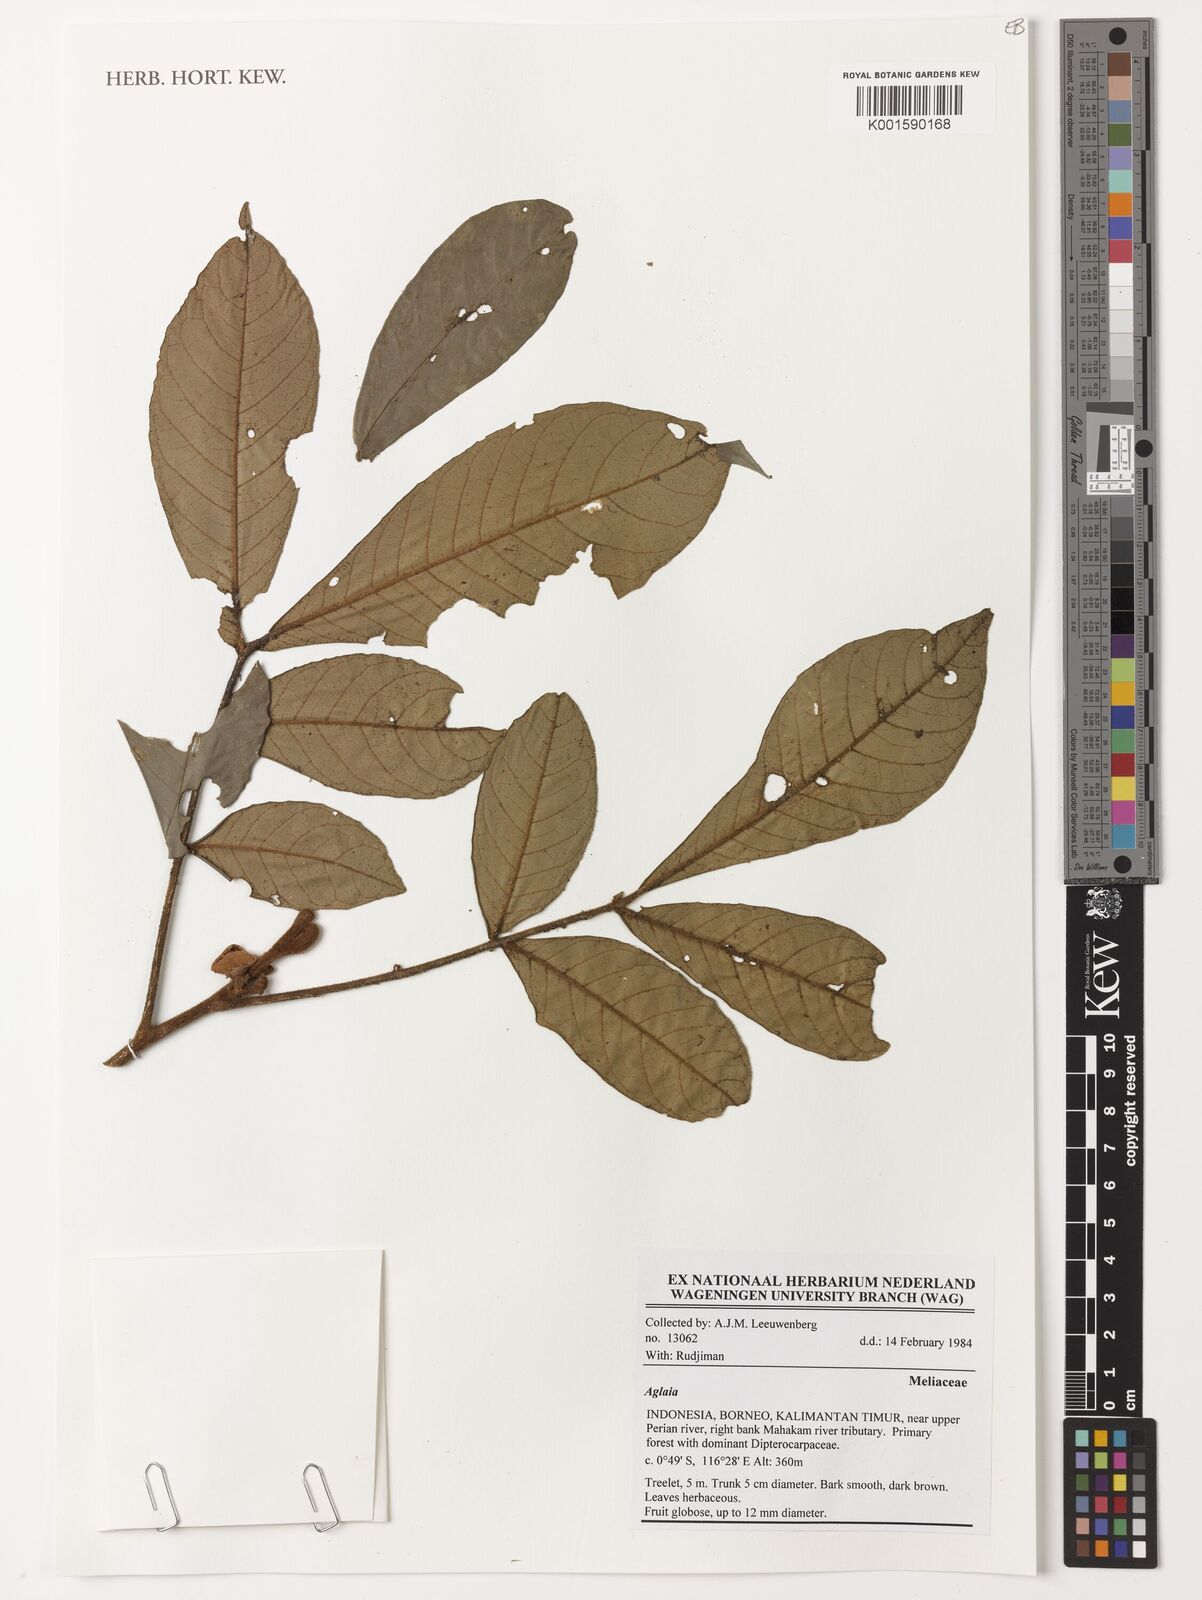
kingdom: Plantae
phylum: Tracheophyta
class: Magnoliopsida
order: Sapindales
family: Meliaceae
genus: Aglaia
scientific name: Aglaia
